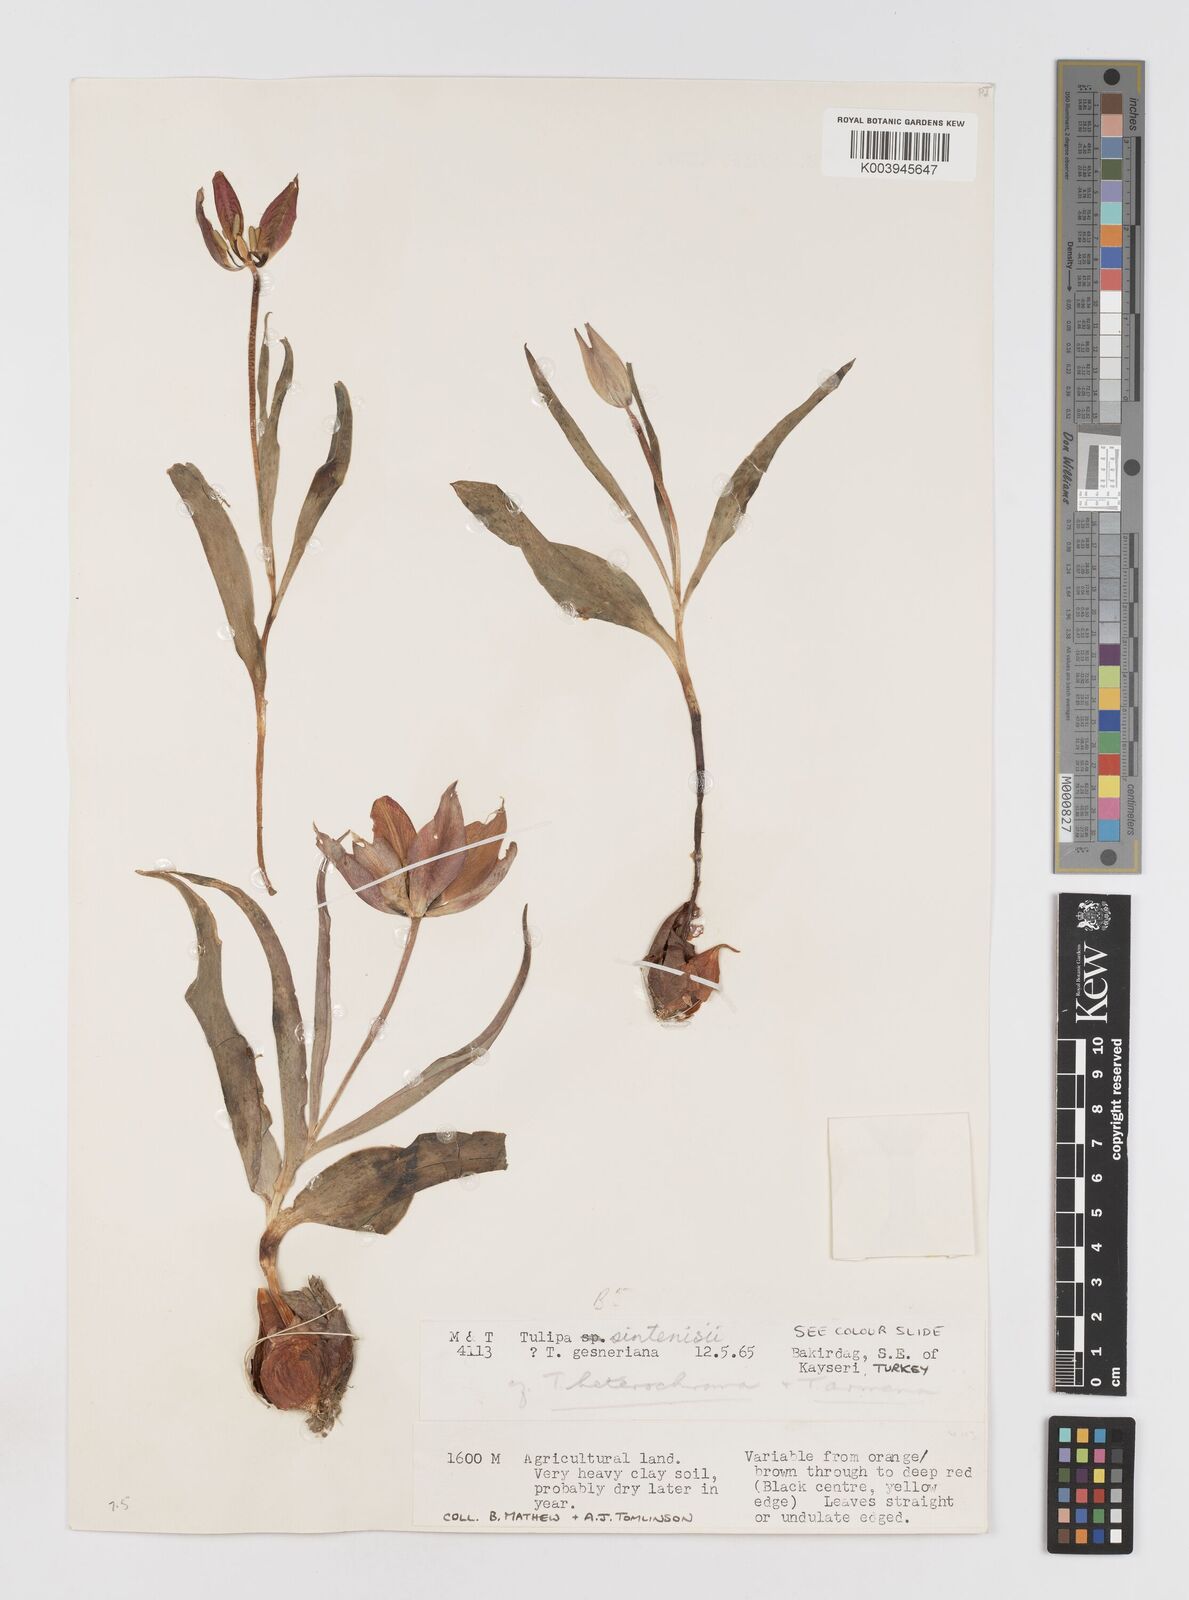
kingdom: Plantae
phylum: Tracheophyta
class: Liliopsida
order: Liliales
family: Liliaceae
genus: Tulipa
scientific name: Tulipa aleppensis
